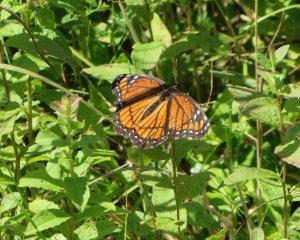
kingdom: Animalia
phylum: Arthropoda
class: Insecta
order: Lepidoptera
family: Nymphalidae
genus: Limenitis
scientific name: Limenitis archippus
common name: Viceroy
